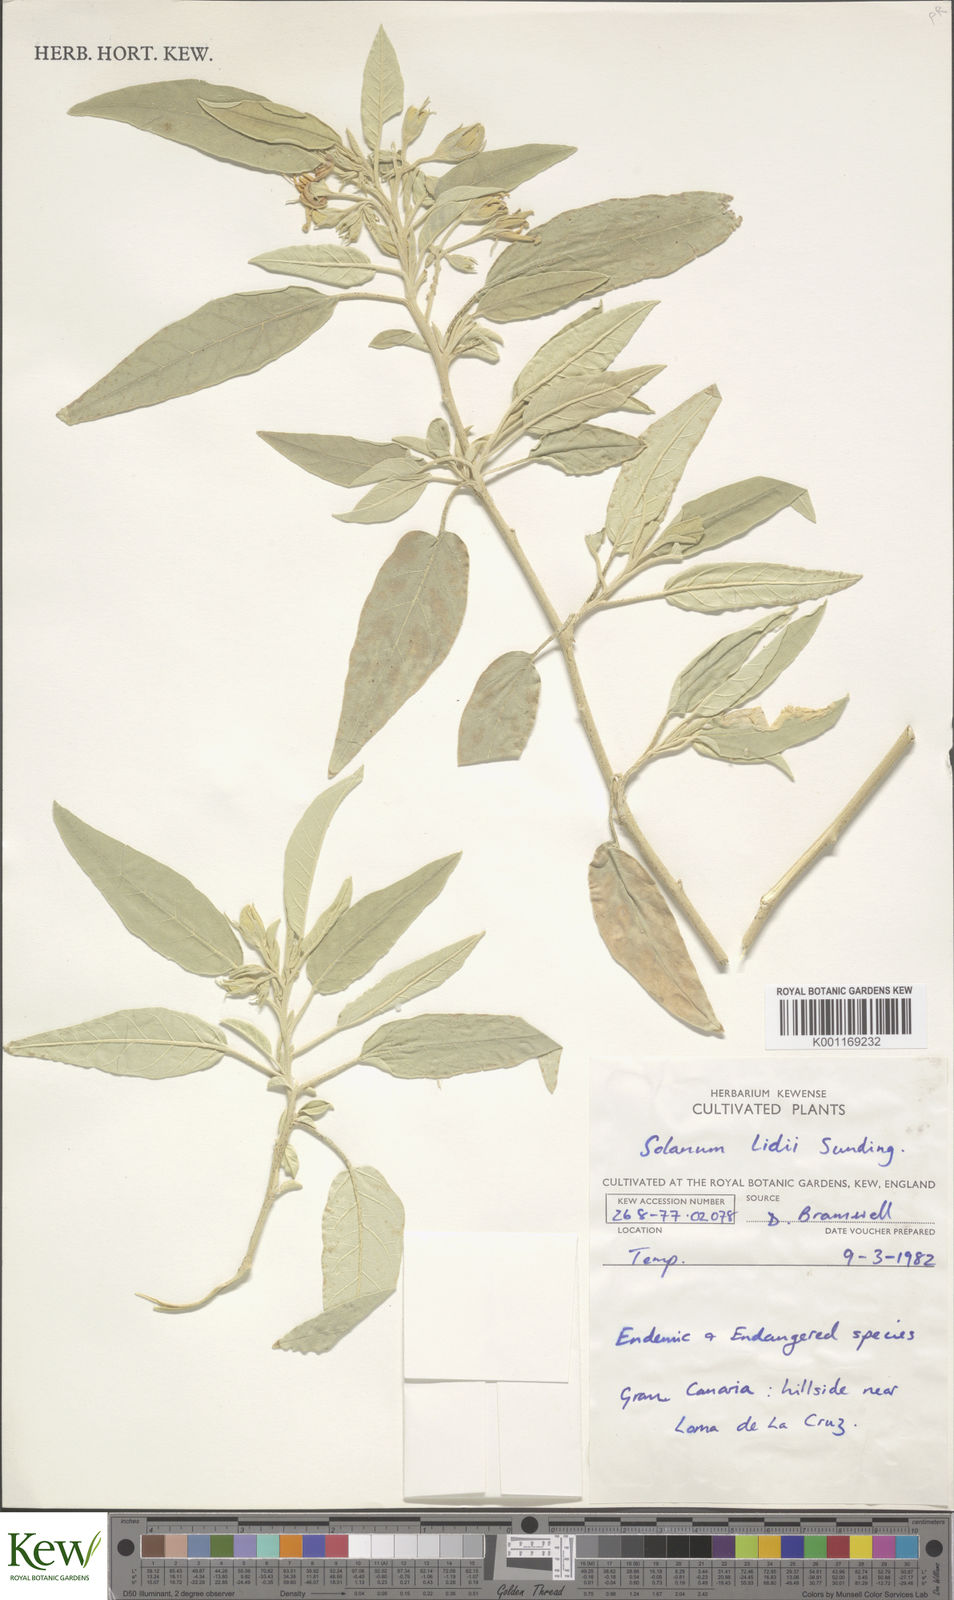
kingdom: Plantae
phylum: Tracheophyta
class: Magnoliopsida
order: Solanales
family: Solanaceae
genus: Solanum
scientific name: Solanum luteoalbum
